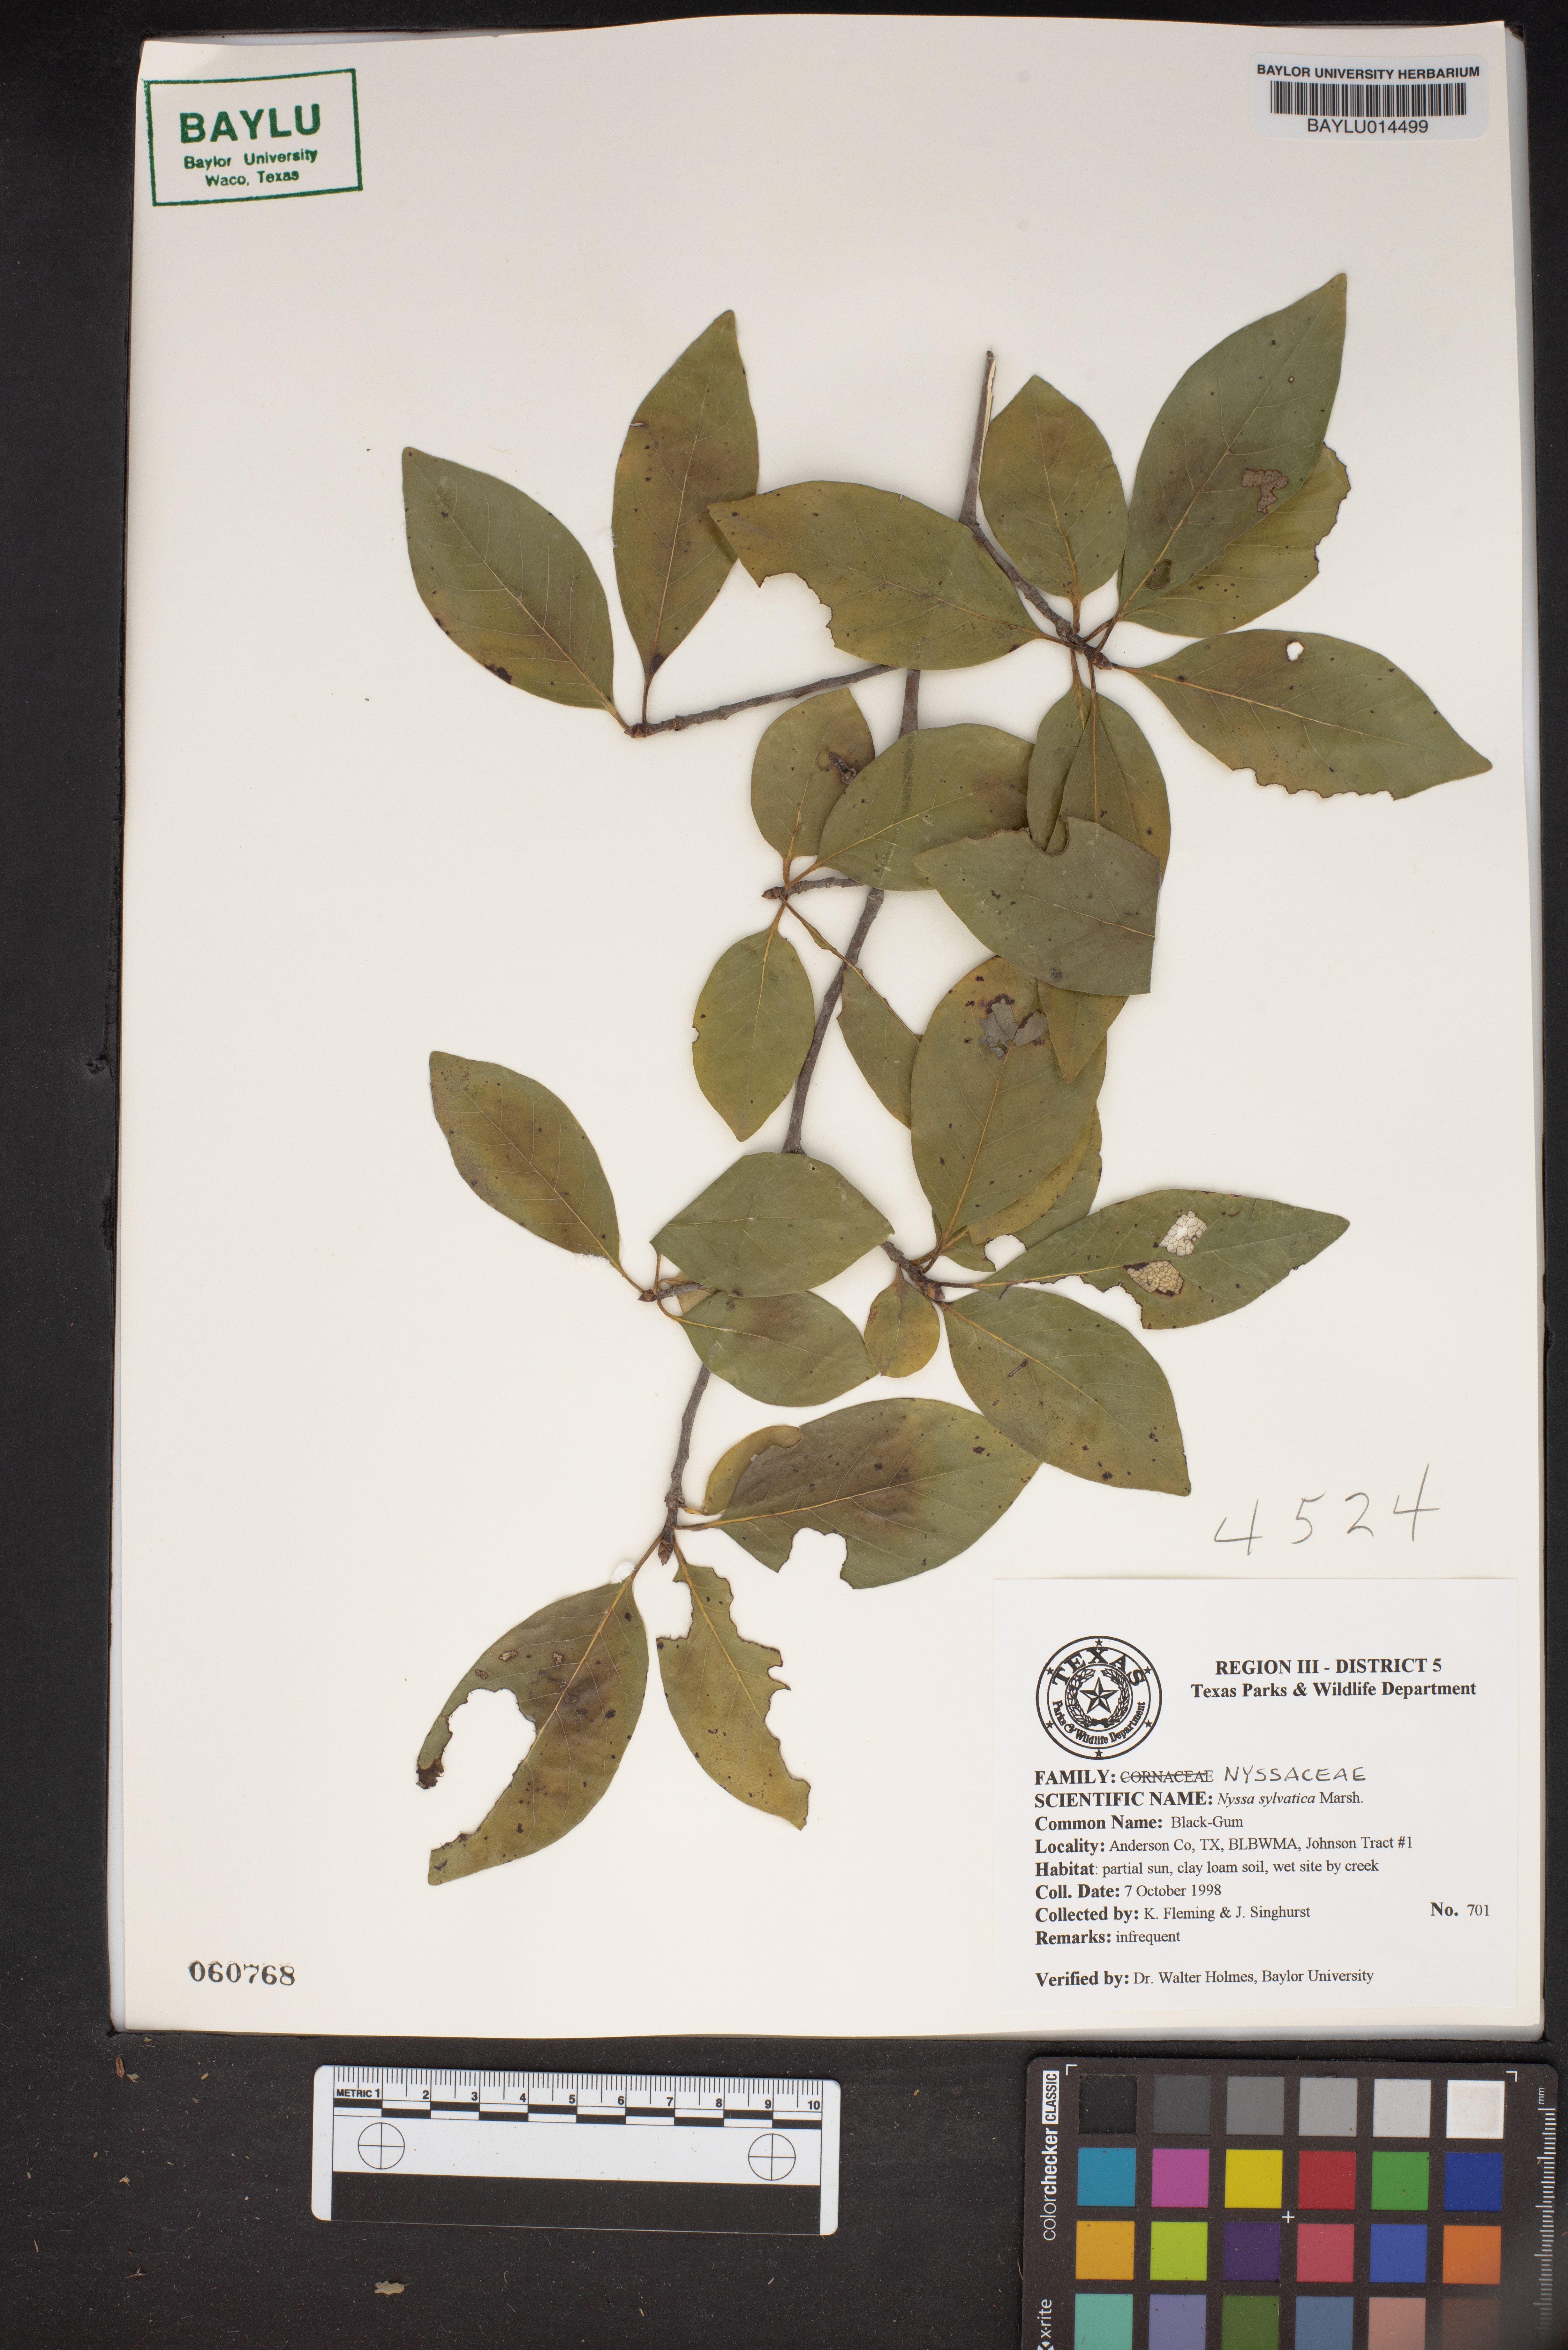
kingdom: Plantae
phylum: Tracheophyta
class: Magnoliopsida
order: Cornales
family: Nyssaceae
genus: Nyssa
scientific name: Nyssa sylvatica
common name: Black tupelo
